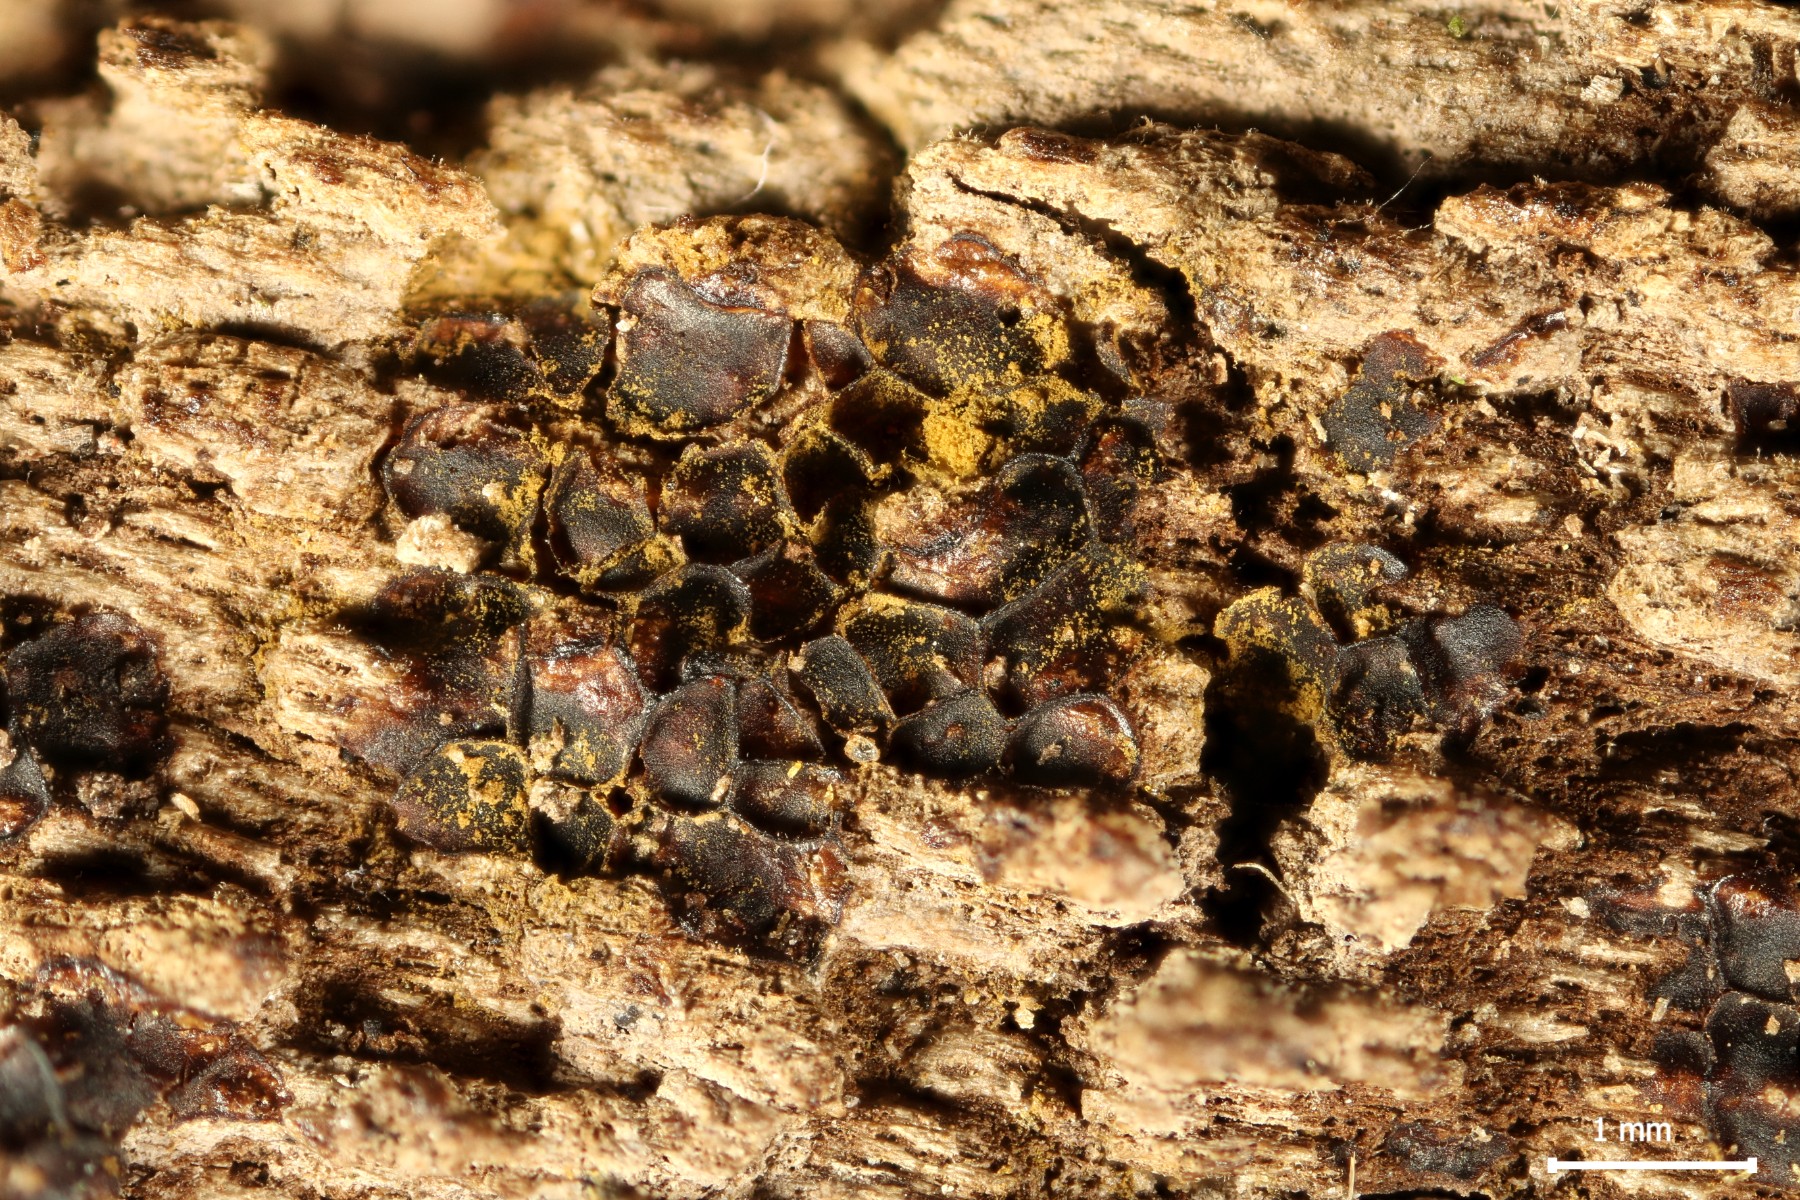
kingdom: Protozoa
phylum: Mycetozoa
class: Myxomycetes
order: Trichiales
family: Trichiaceae
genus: Perichaena
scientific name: Perichaena depressa
